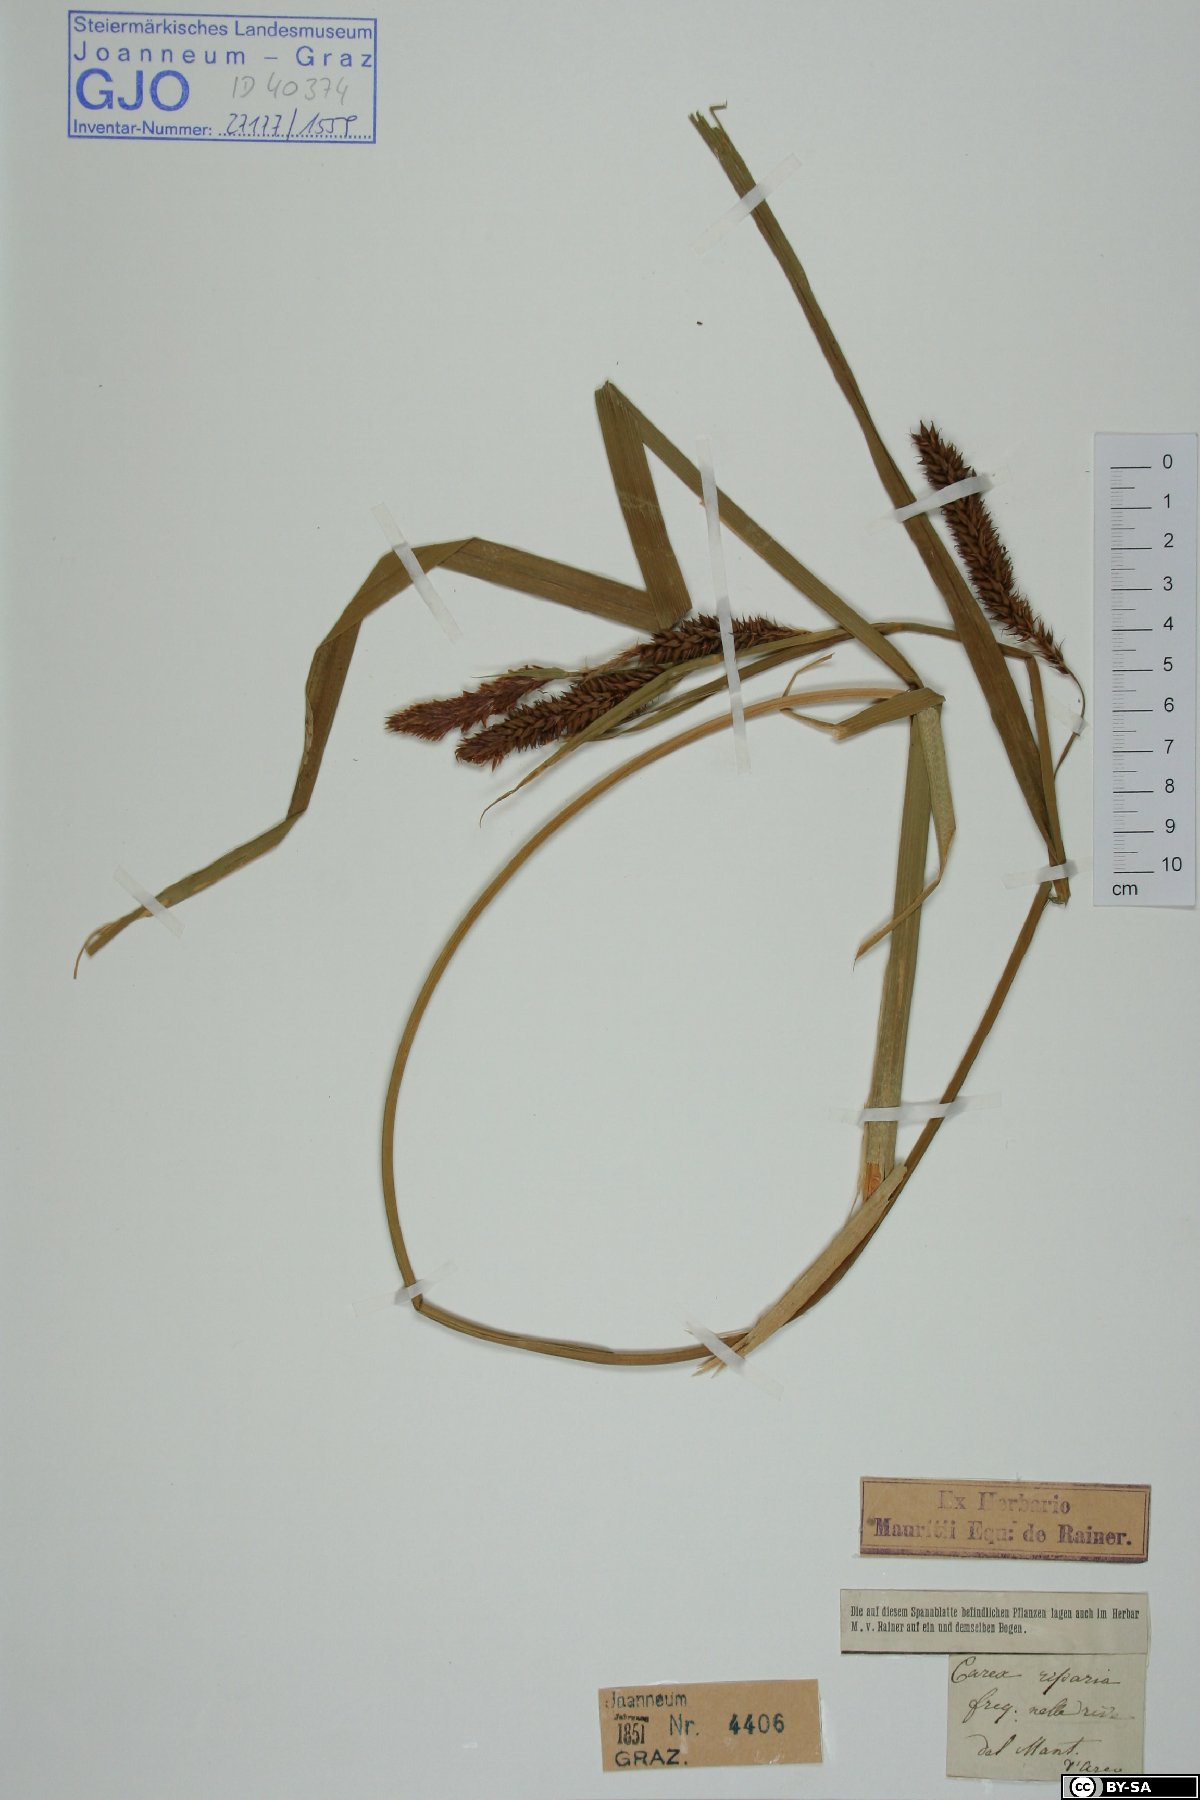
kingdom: Plantae
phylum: Tracheophyta
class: Liliopsida
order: Poales
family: Cyperaceae
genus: Carex
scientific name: Carex riparia
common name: Greater pond-sedge
